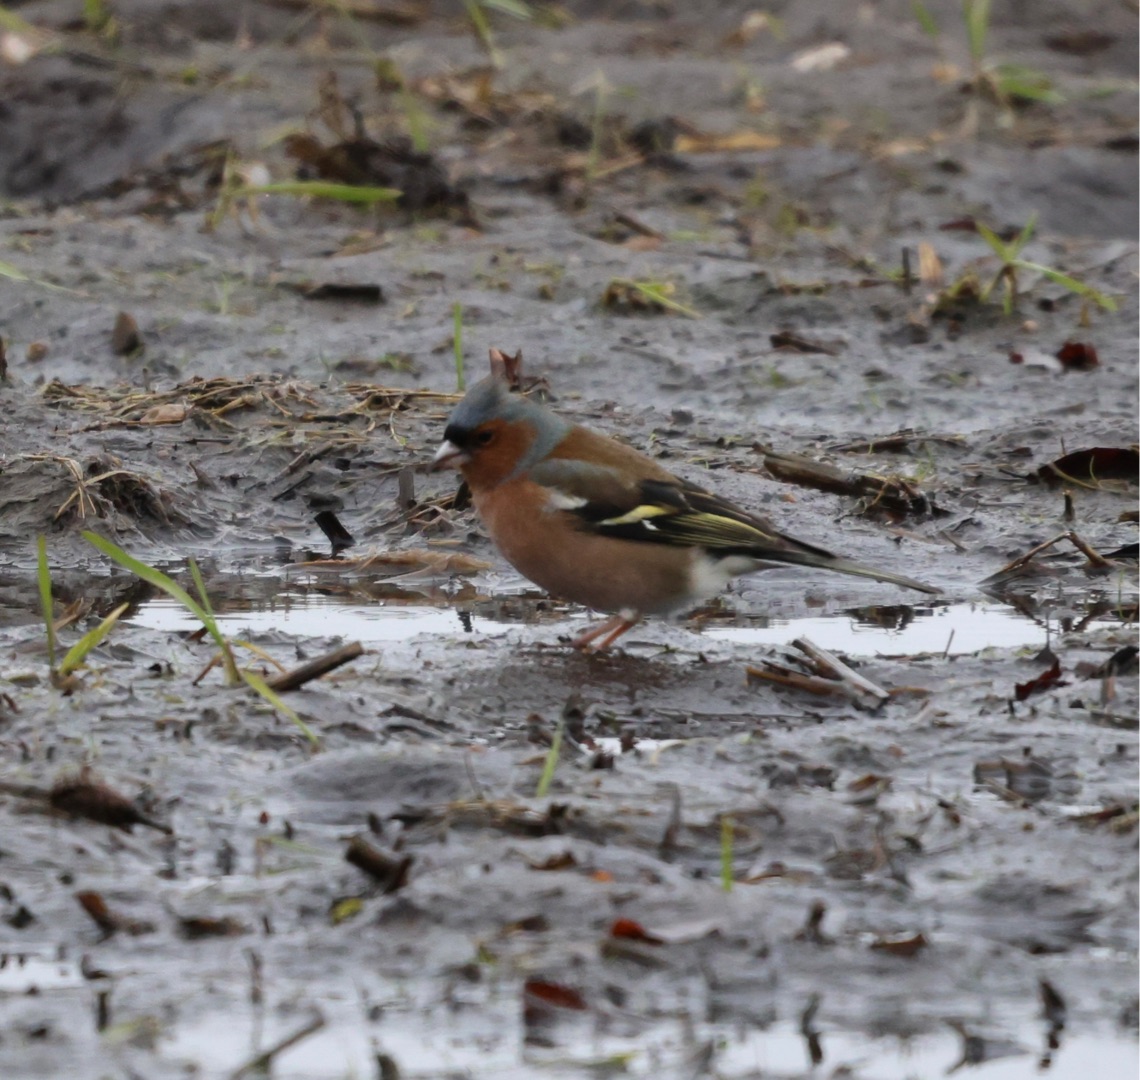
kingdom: Animalia
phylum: Chordata
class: Aves
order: Passeriformes
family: Fringillidae
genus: Fringilla
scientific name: Fringilla coelebs
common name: Bogfinke
